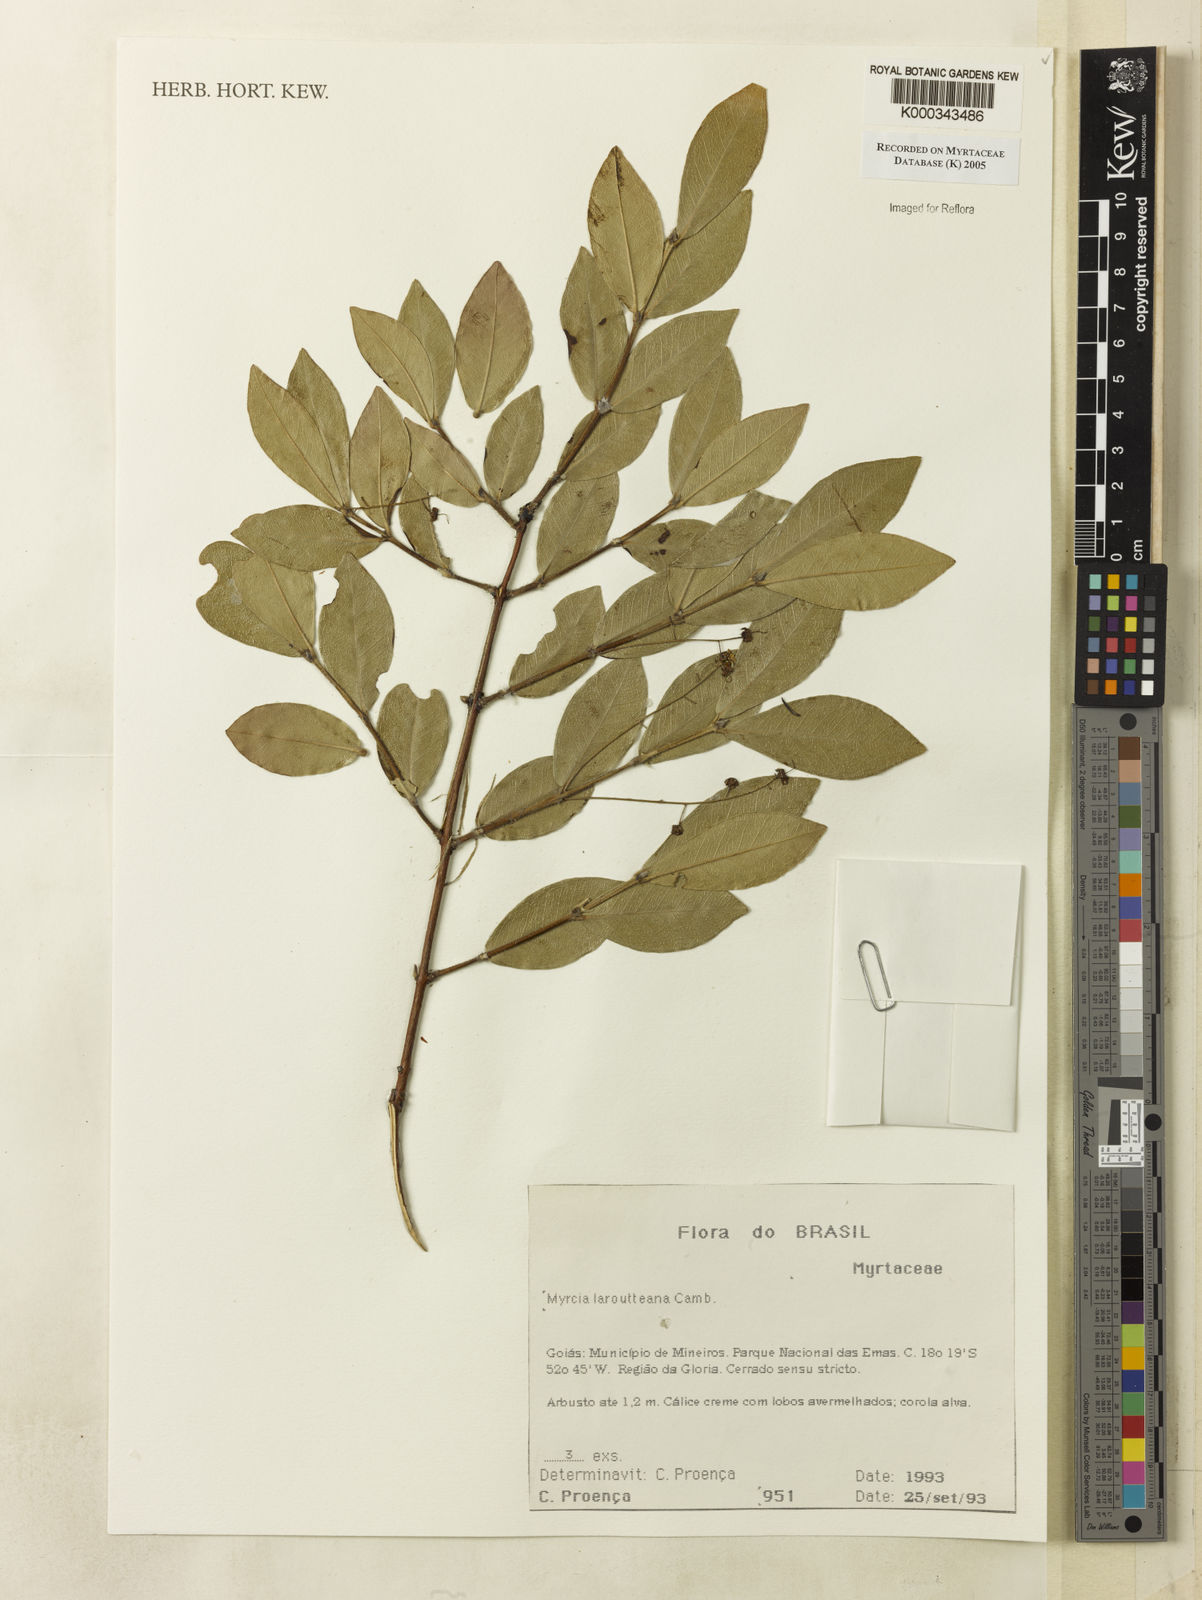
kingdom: Plantae
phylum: Tracheophyta
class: Magnoliopsida
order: Myrtales
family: Myrtaceae
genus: Myrcia
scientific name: Myrcia laruotteana
